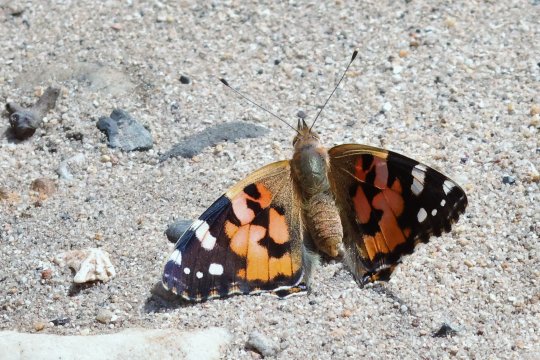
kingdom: Animalia
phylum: Arthropoda
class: Insecta
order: Lepidoptera
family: Nymphalidae
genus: Vanessa
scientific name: Vanessa cardui
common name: Painted Lady
